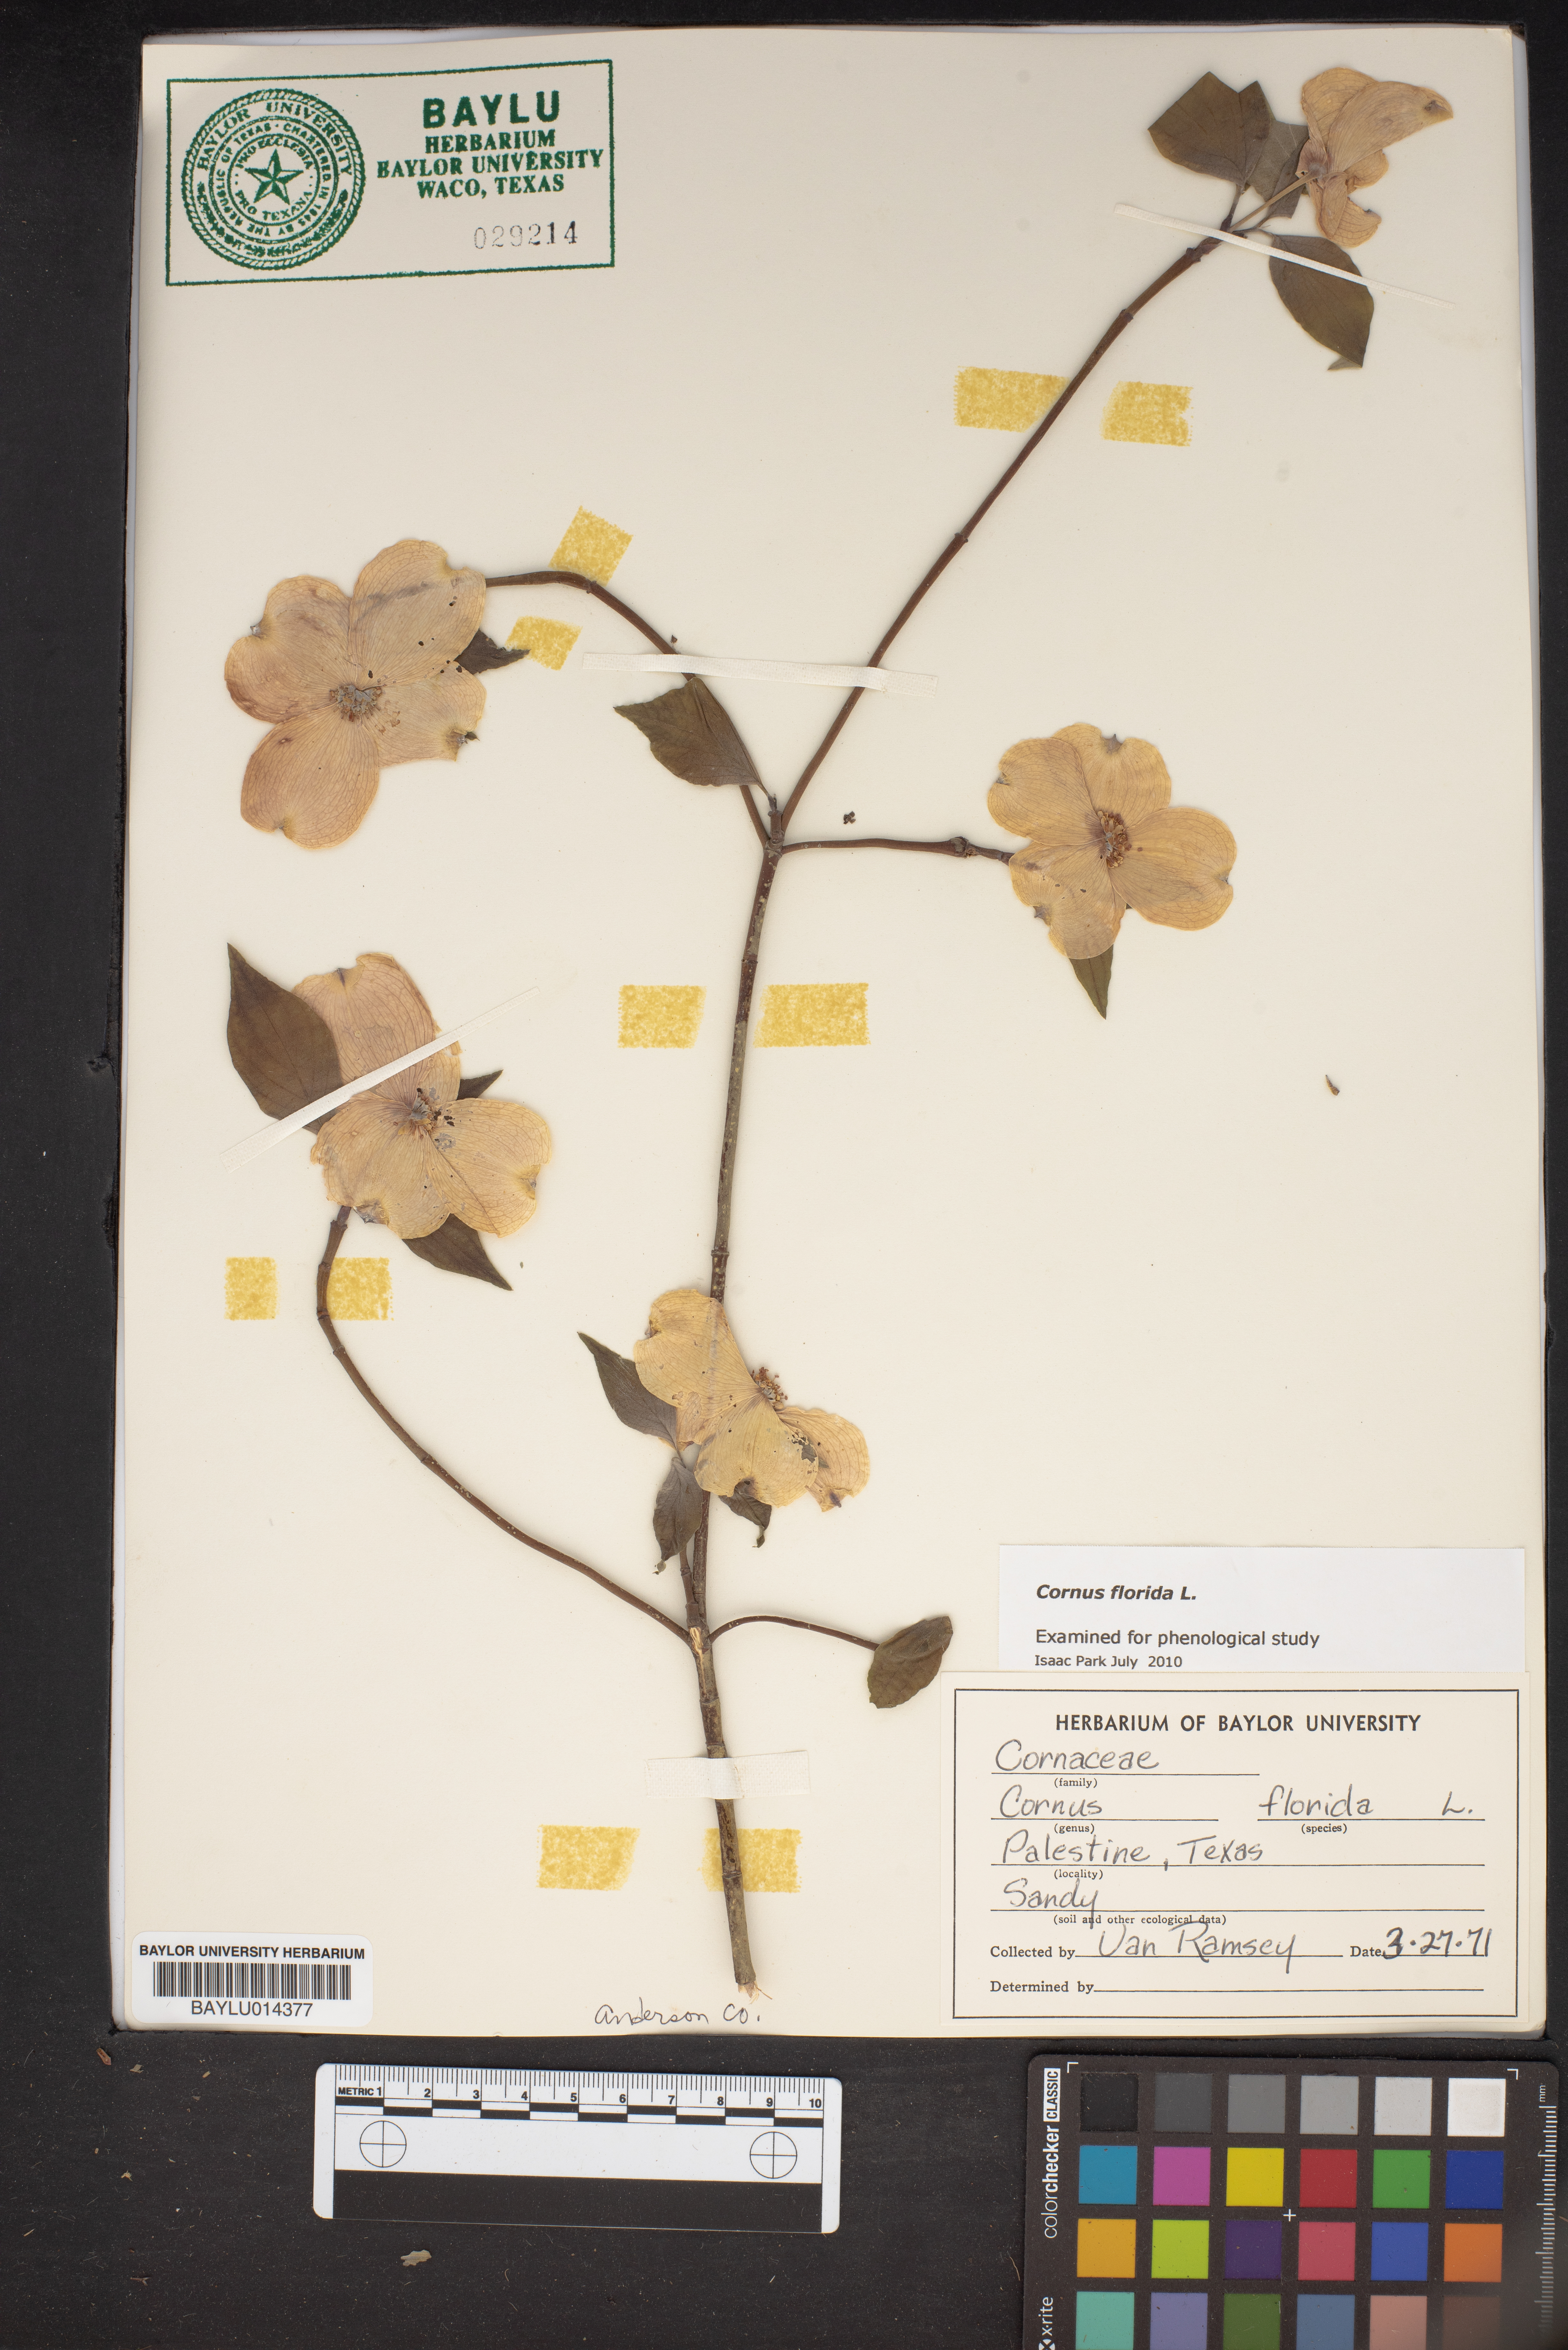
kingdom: Plantae
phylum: Tracheophyta
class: Magnoliopsida
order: Cornales
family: Cornaceae
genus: Cornus
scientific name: Cornus florida
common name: Flowering dogwood
